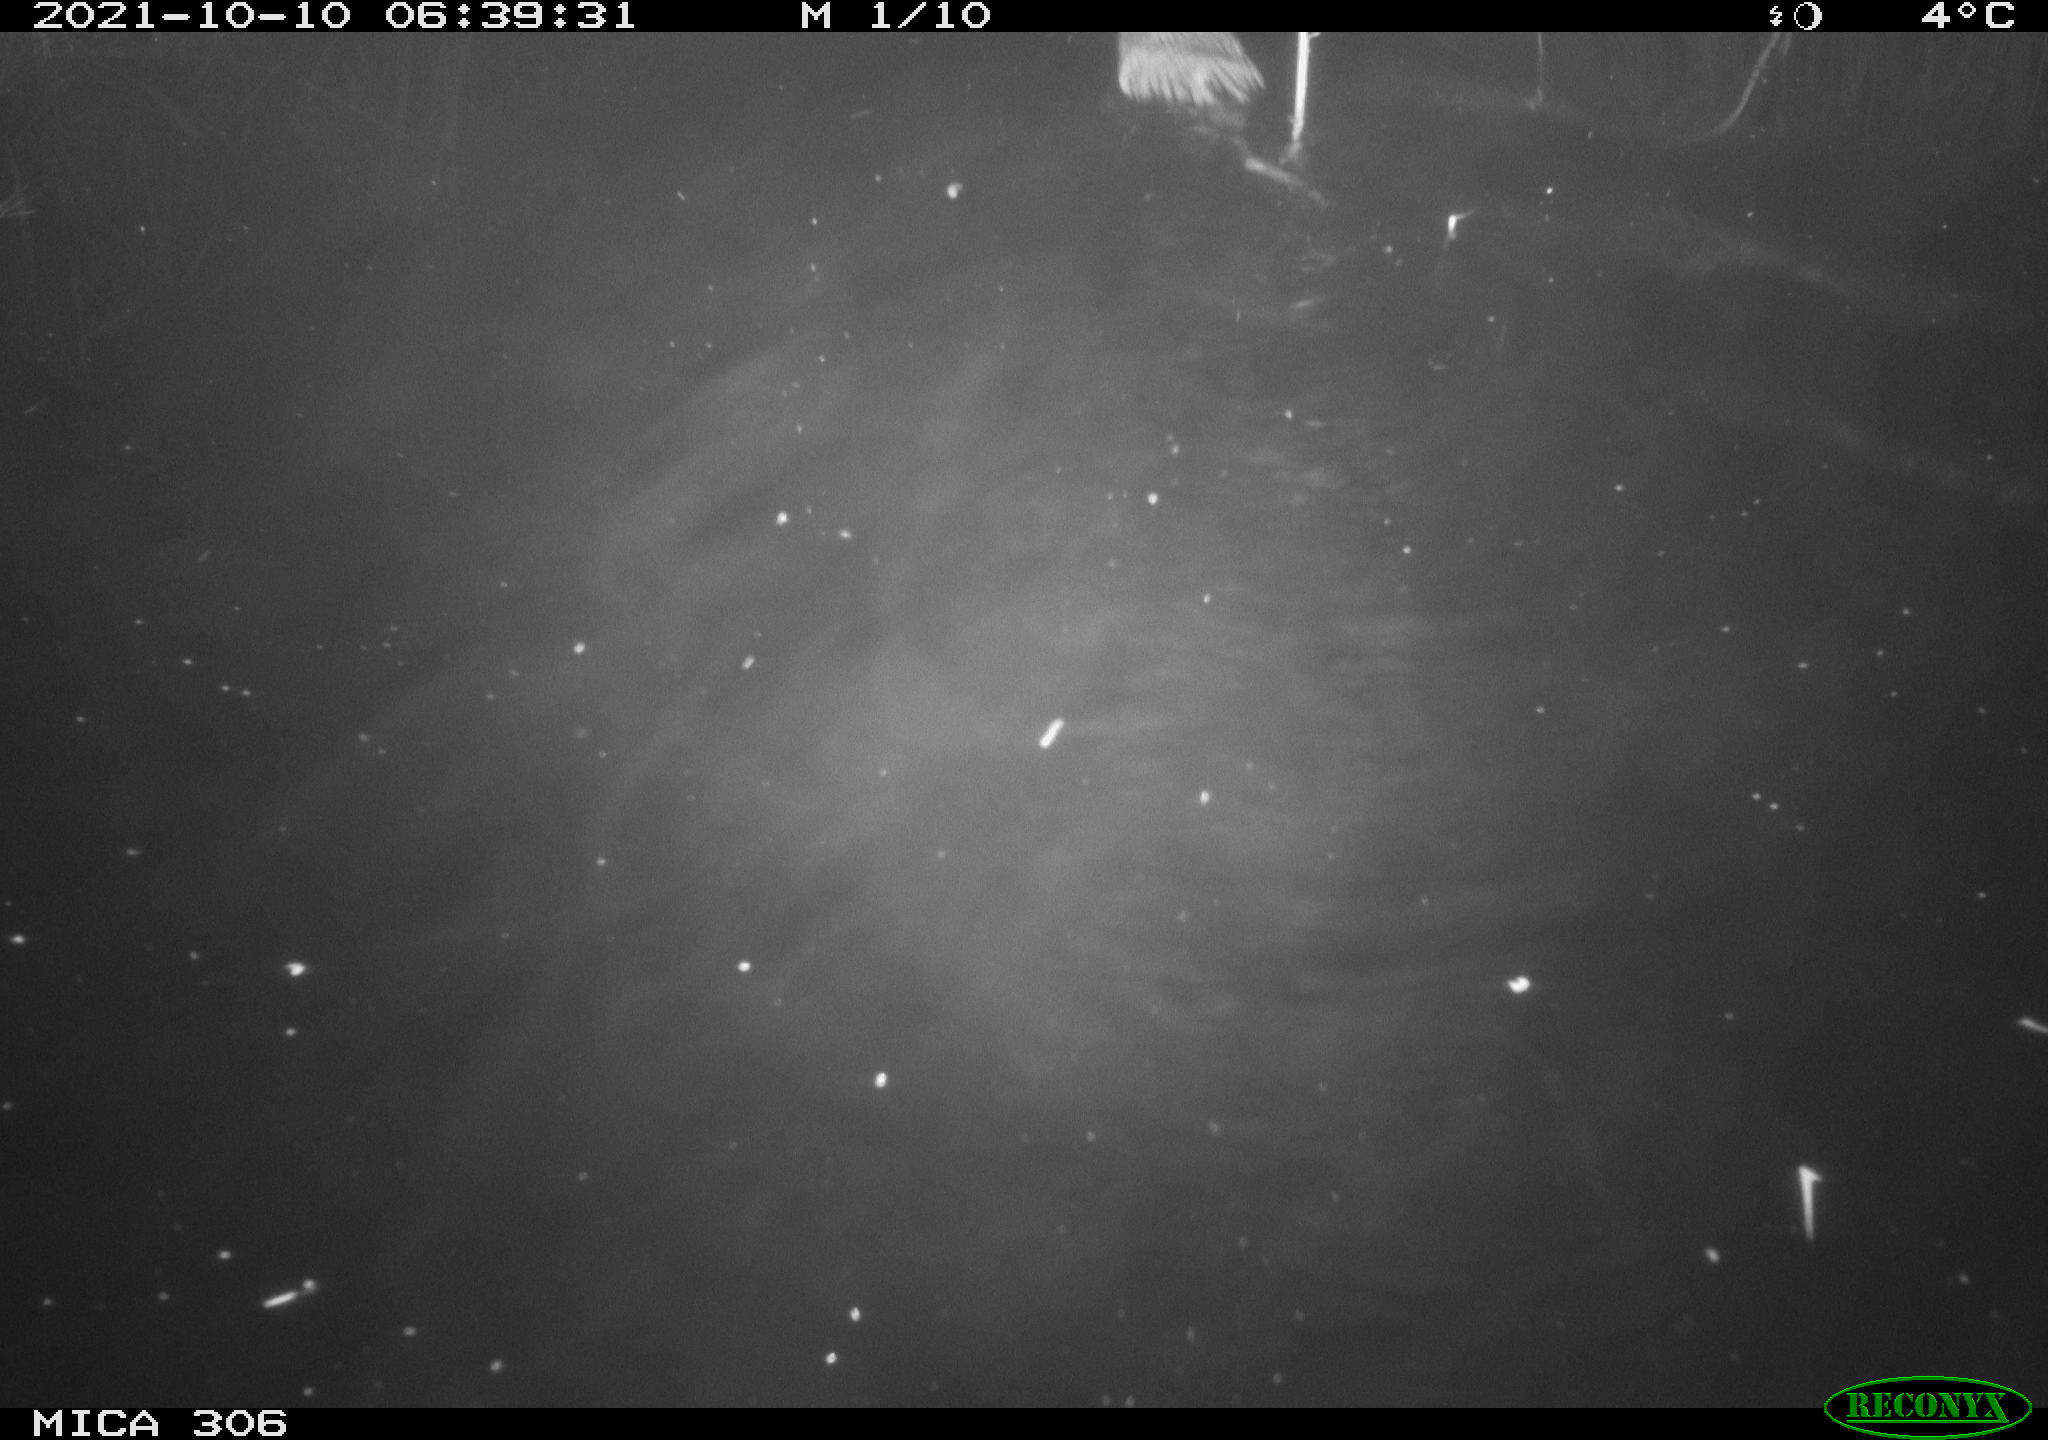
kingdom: Animalia
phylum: Chordata
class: Mammalia
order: Rodentia
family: Cricetidae
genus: Ondatra
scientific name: Ondatra zibethicus
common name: Muskrat
